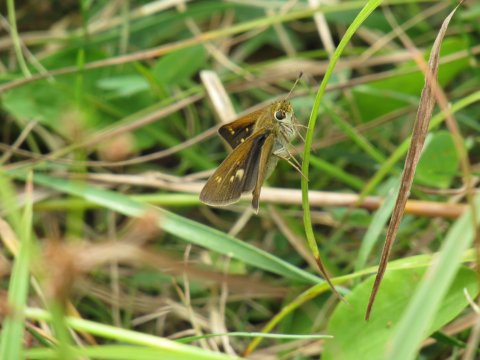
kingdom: Animalia
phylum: Arthropoda
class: Insecta
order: Lepidoptera
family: Hesperiidae
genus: Polites
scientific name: Polites
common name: Crossline Skipper
